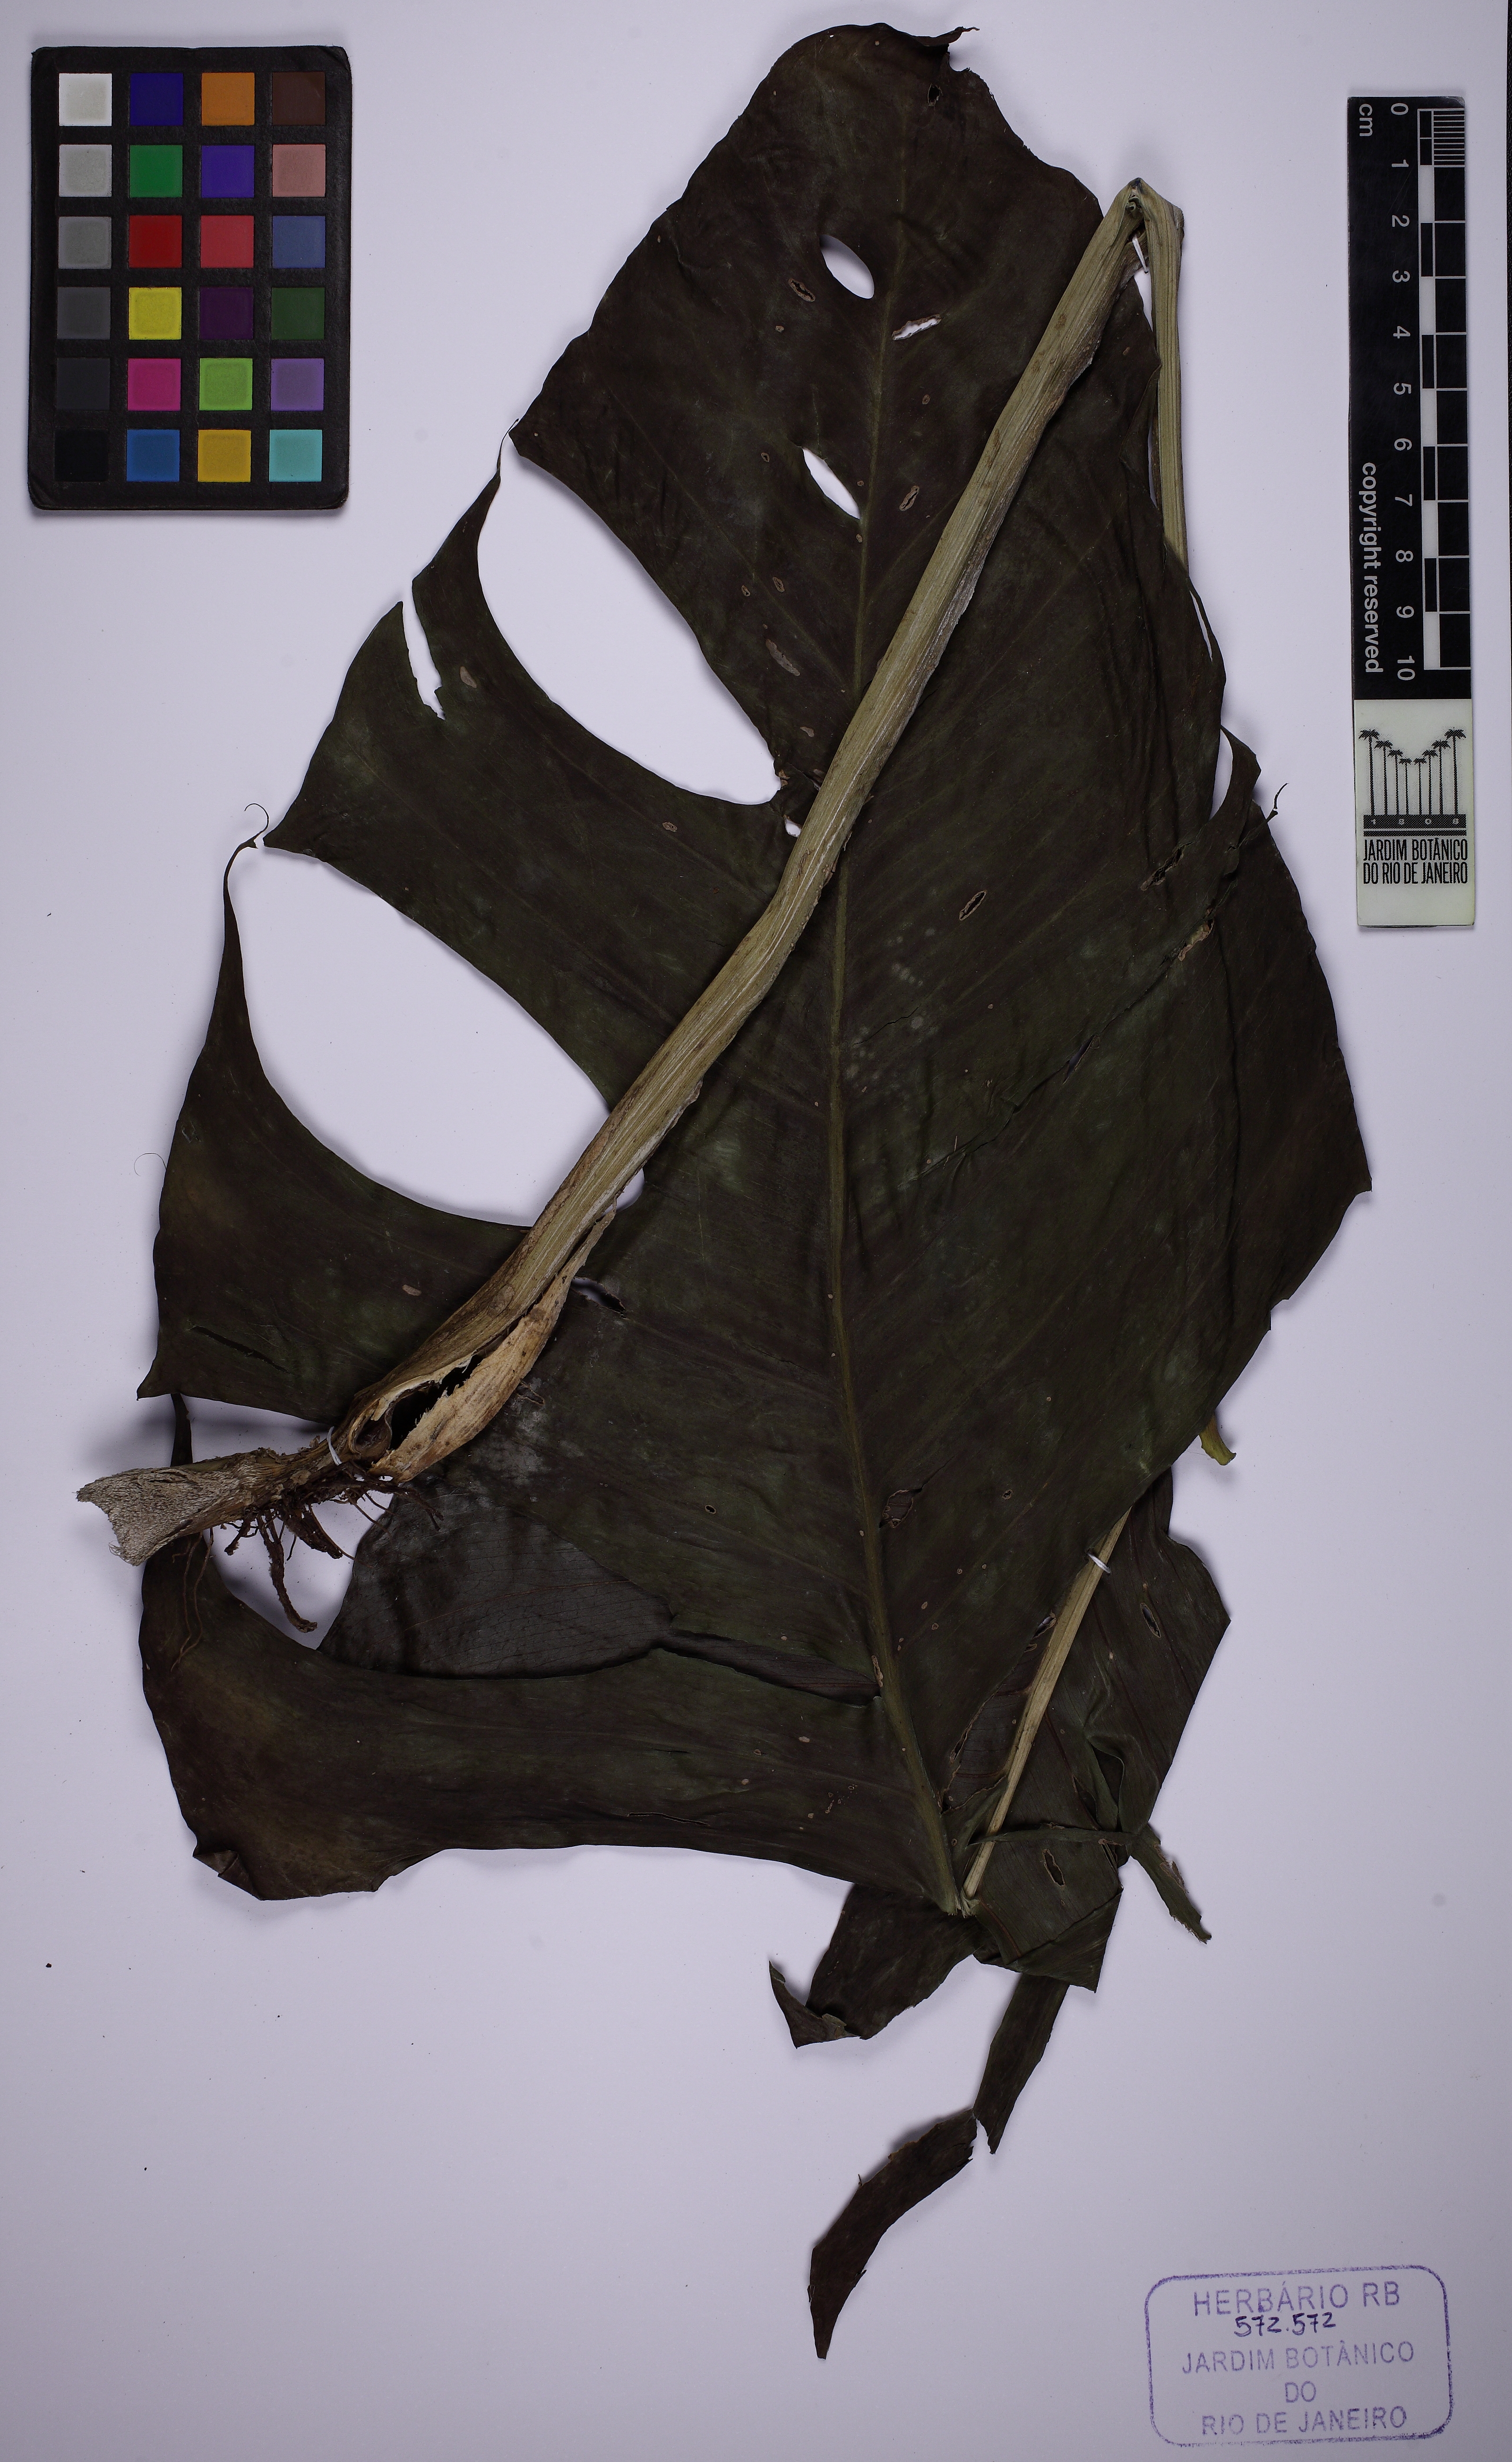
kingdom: Plantae
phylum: Tracheophyta
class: Liliopsida
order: Alismatales
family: Araceae
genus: Monstera
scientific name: Monstera adansonii
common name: Tarovine
